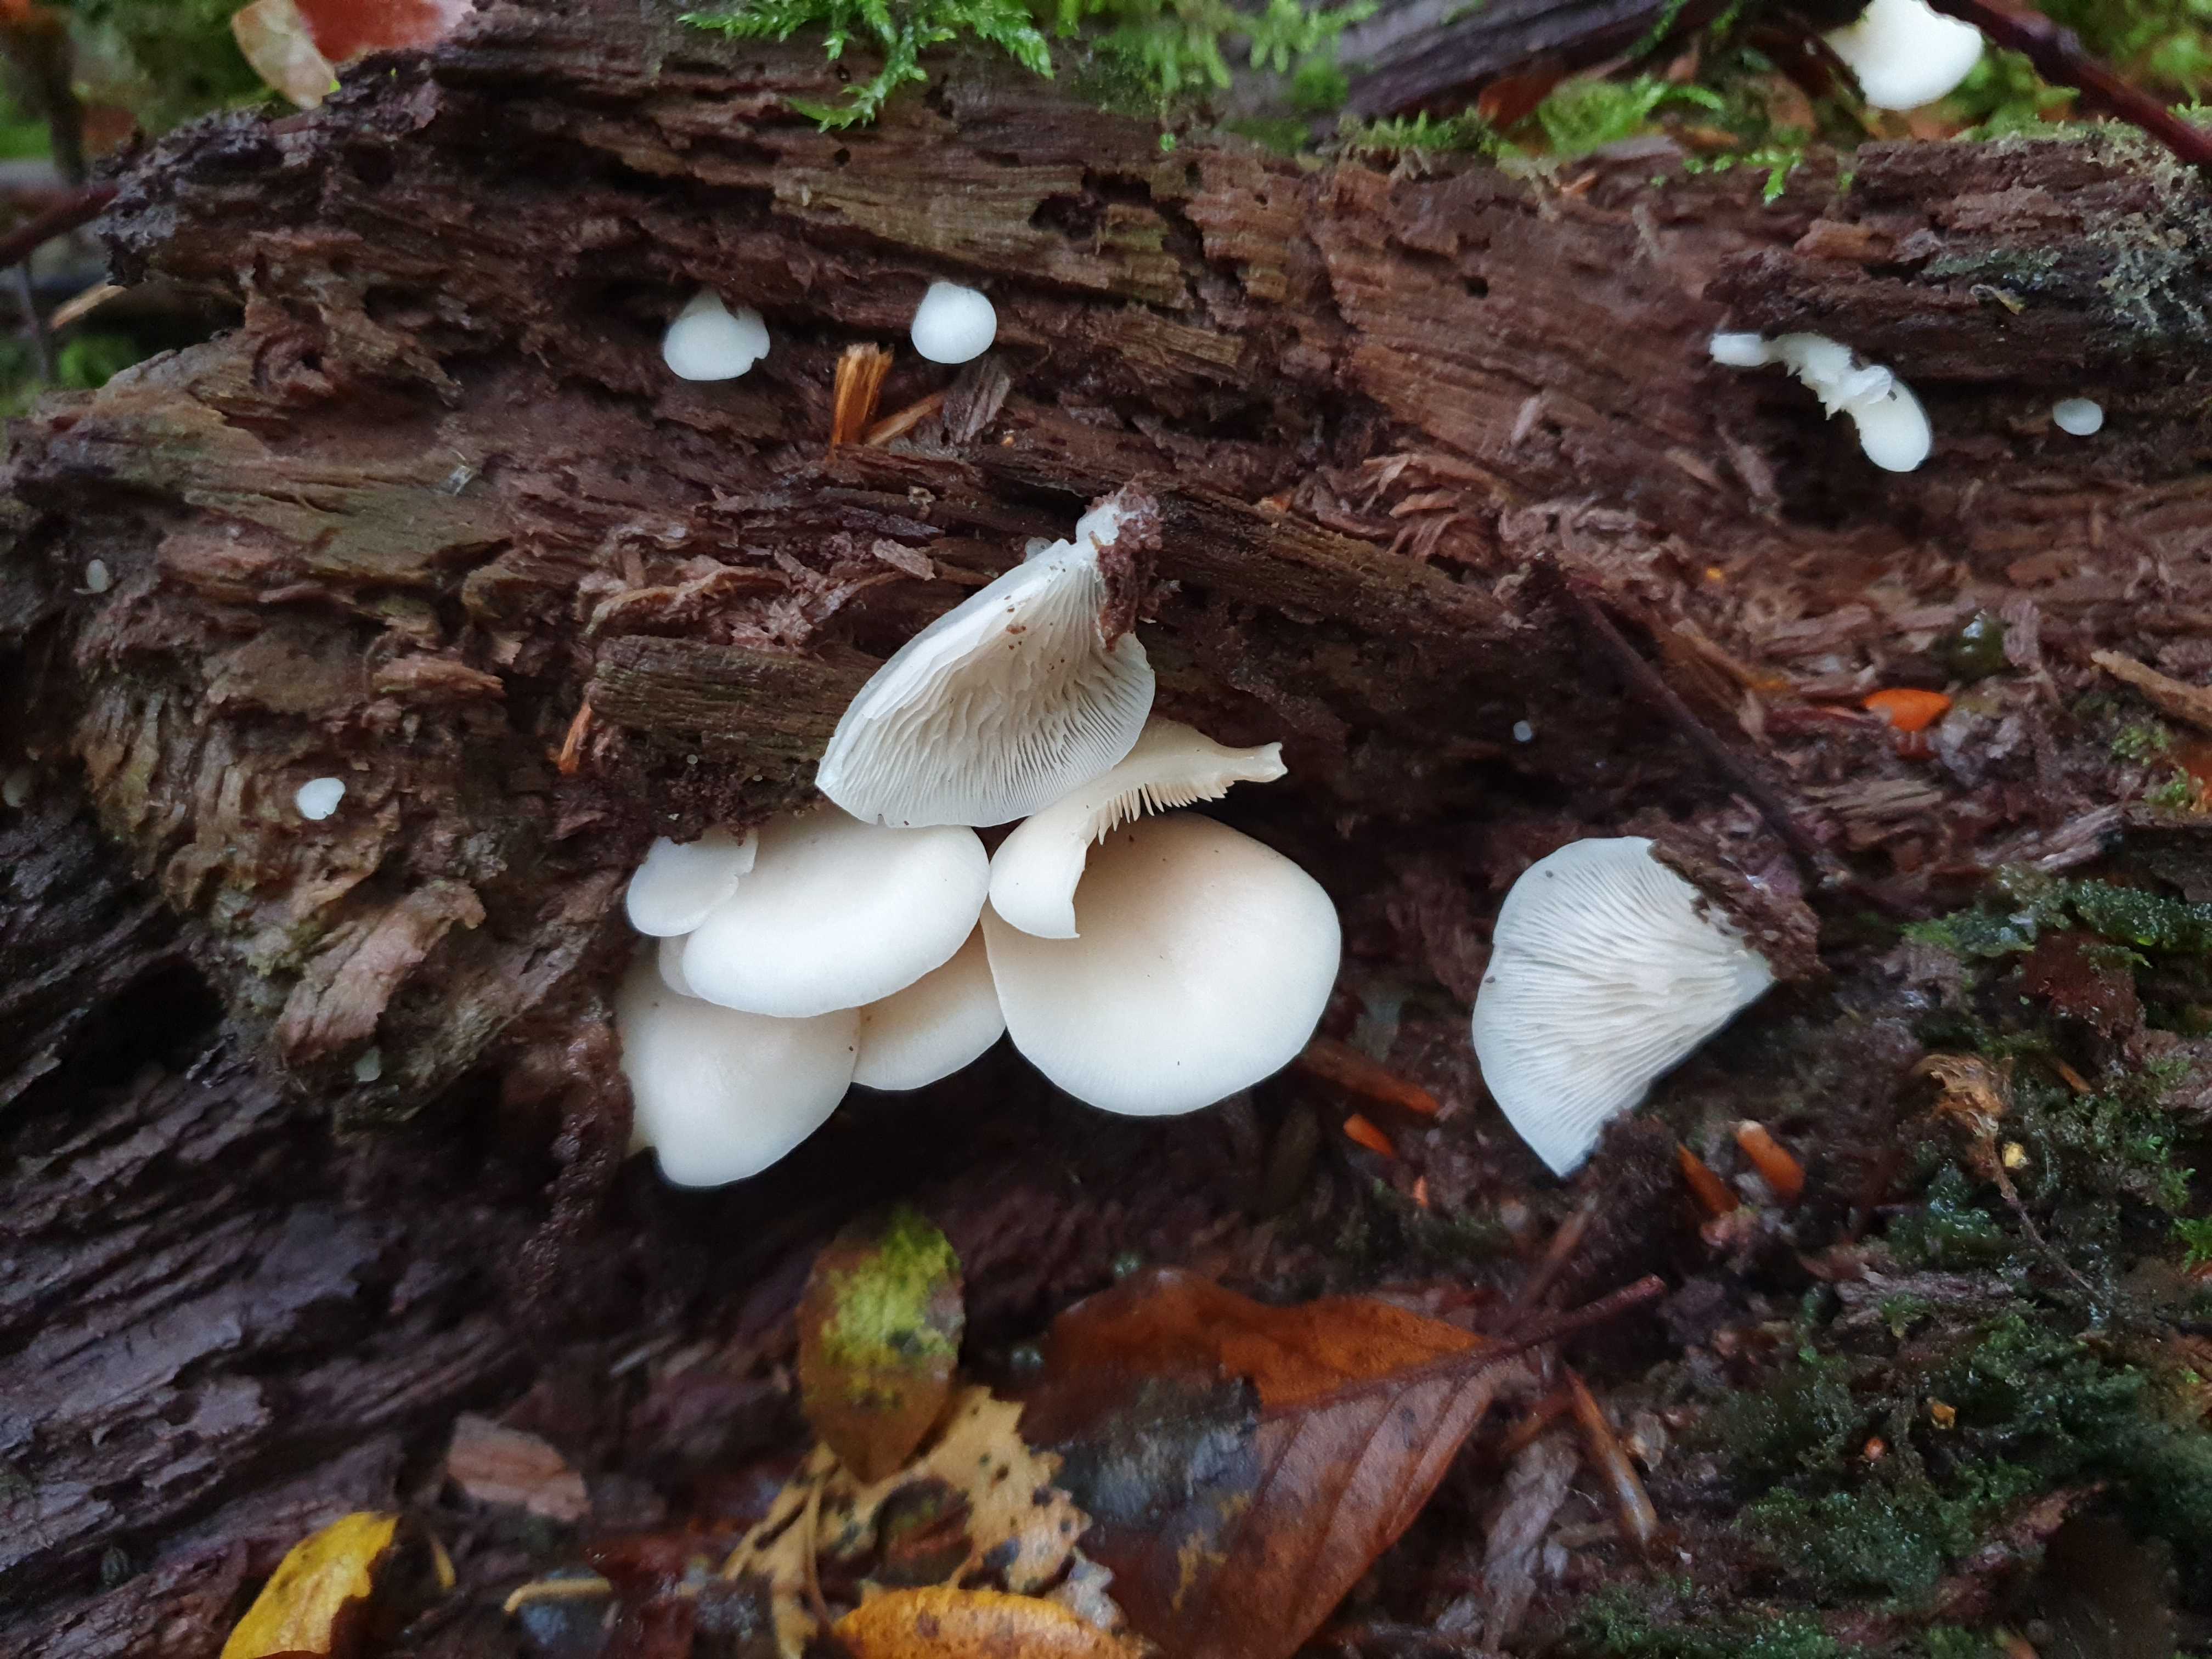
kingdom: Fungi
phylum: Basidiomycota
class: Agaricomycetes
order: Agaricales
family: Crepidotaceae
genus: Crepidotus
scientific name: Crepidotus mollis
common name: blød muslingesvamp
